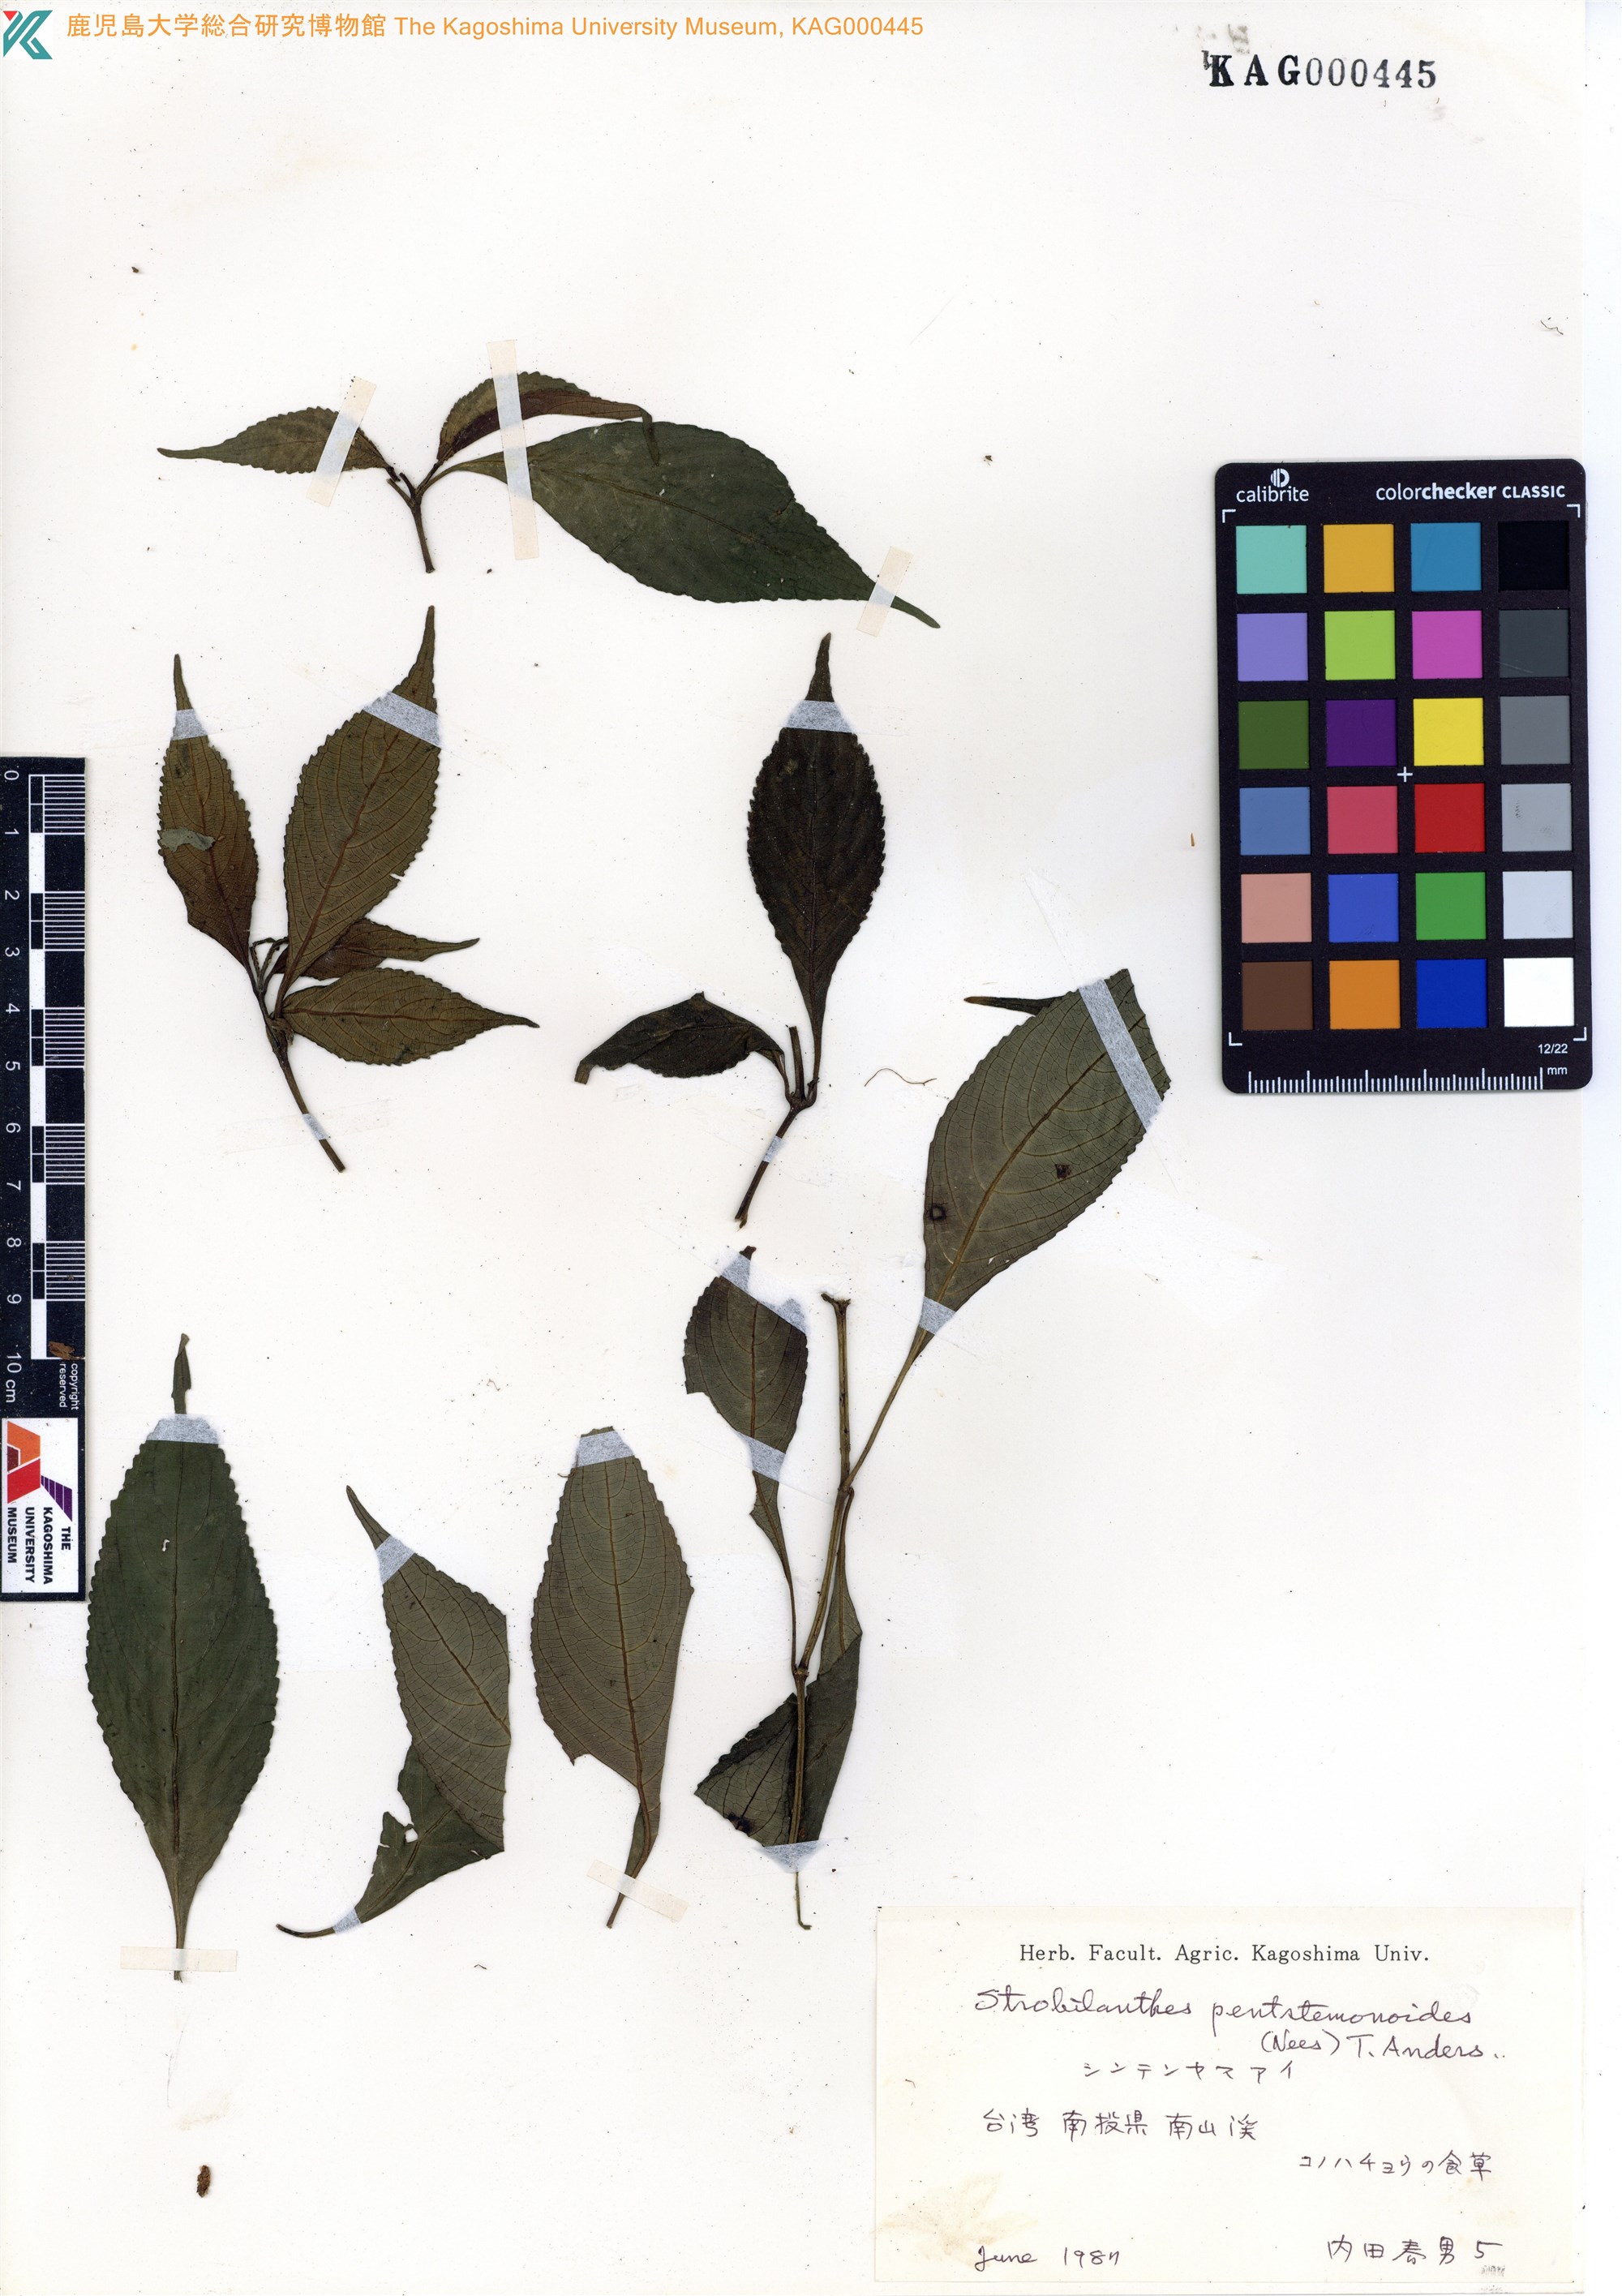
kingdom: Plantae
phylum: Tracheophyta
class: Magnoliopsida
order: Lamiales
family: Acanthaceae
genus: Strobilanthes
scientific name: Strobilanthes
